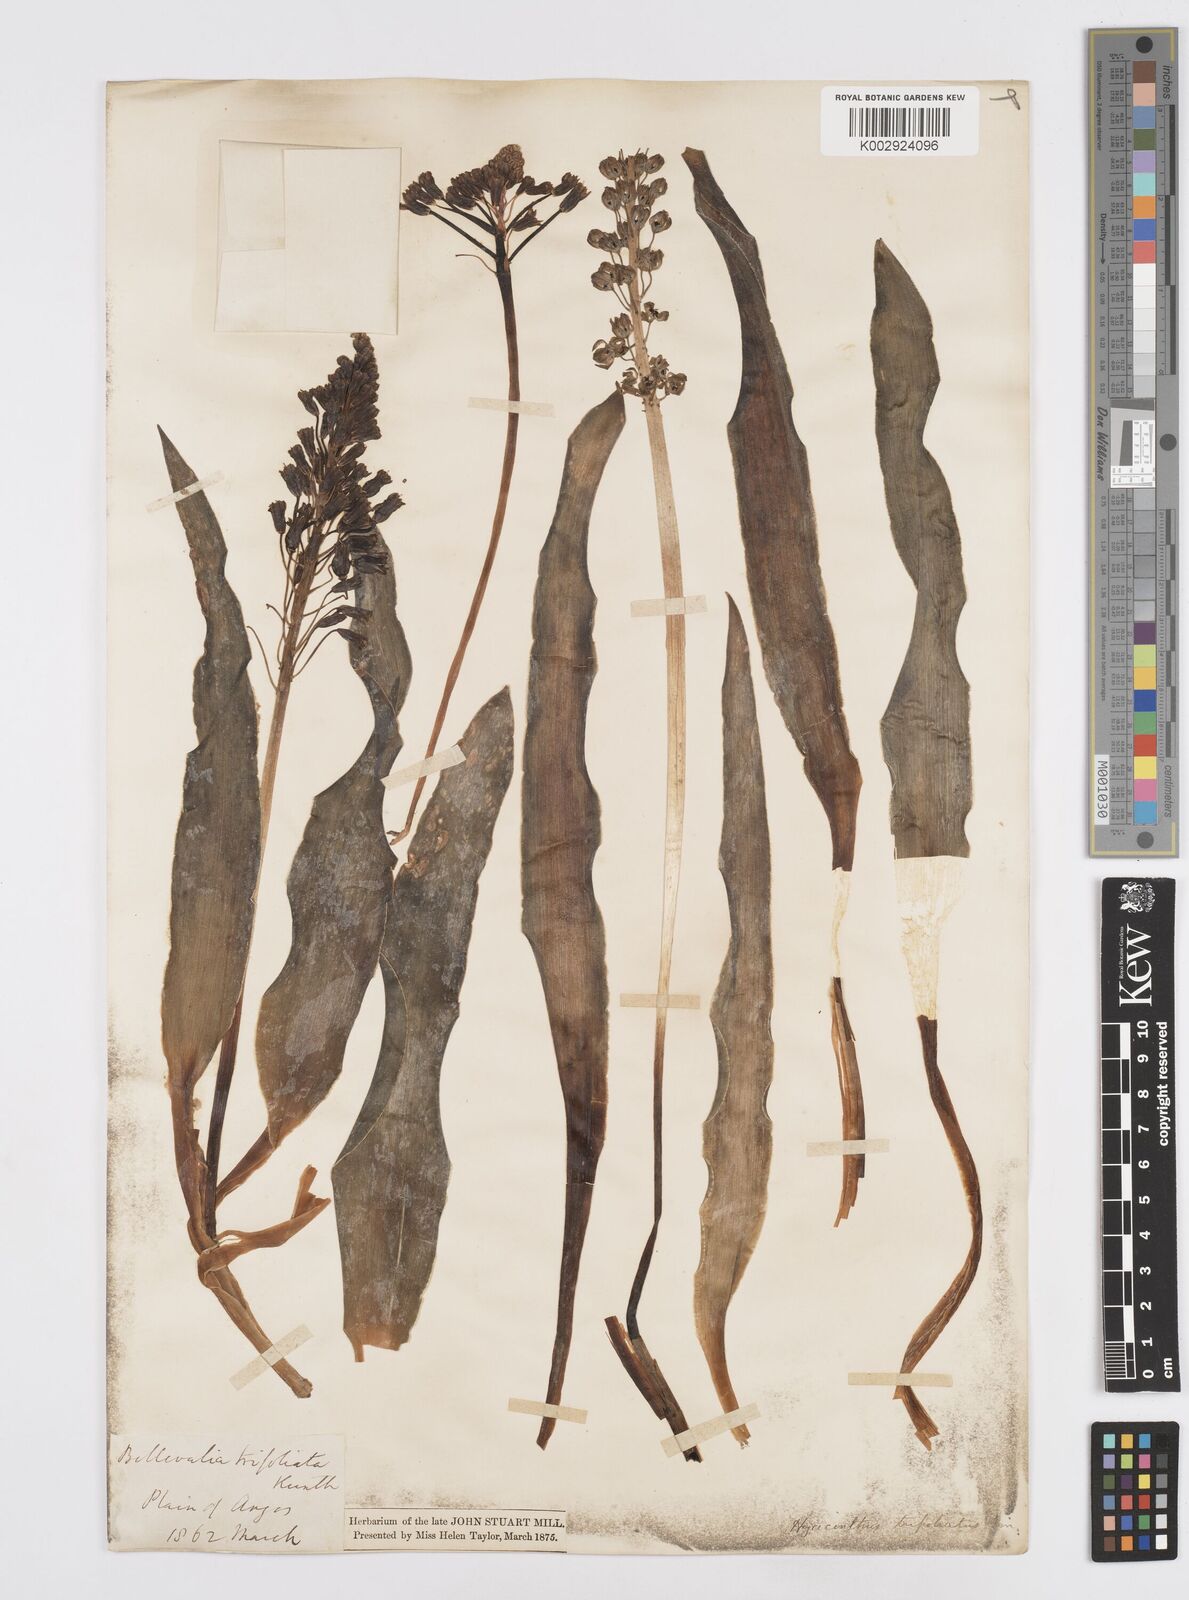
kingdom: Plantae
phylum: Tracheophyta
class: Liliopsida
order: Asparagales
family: Asparagaceae
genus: Bellevalia
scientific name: Bellevalia ciliata
